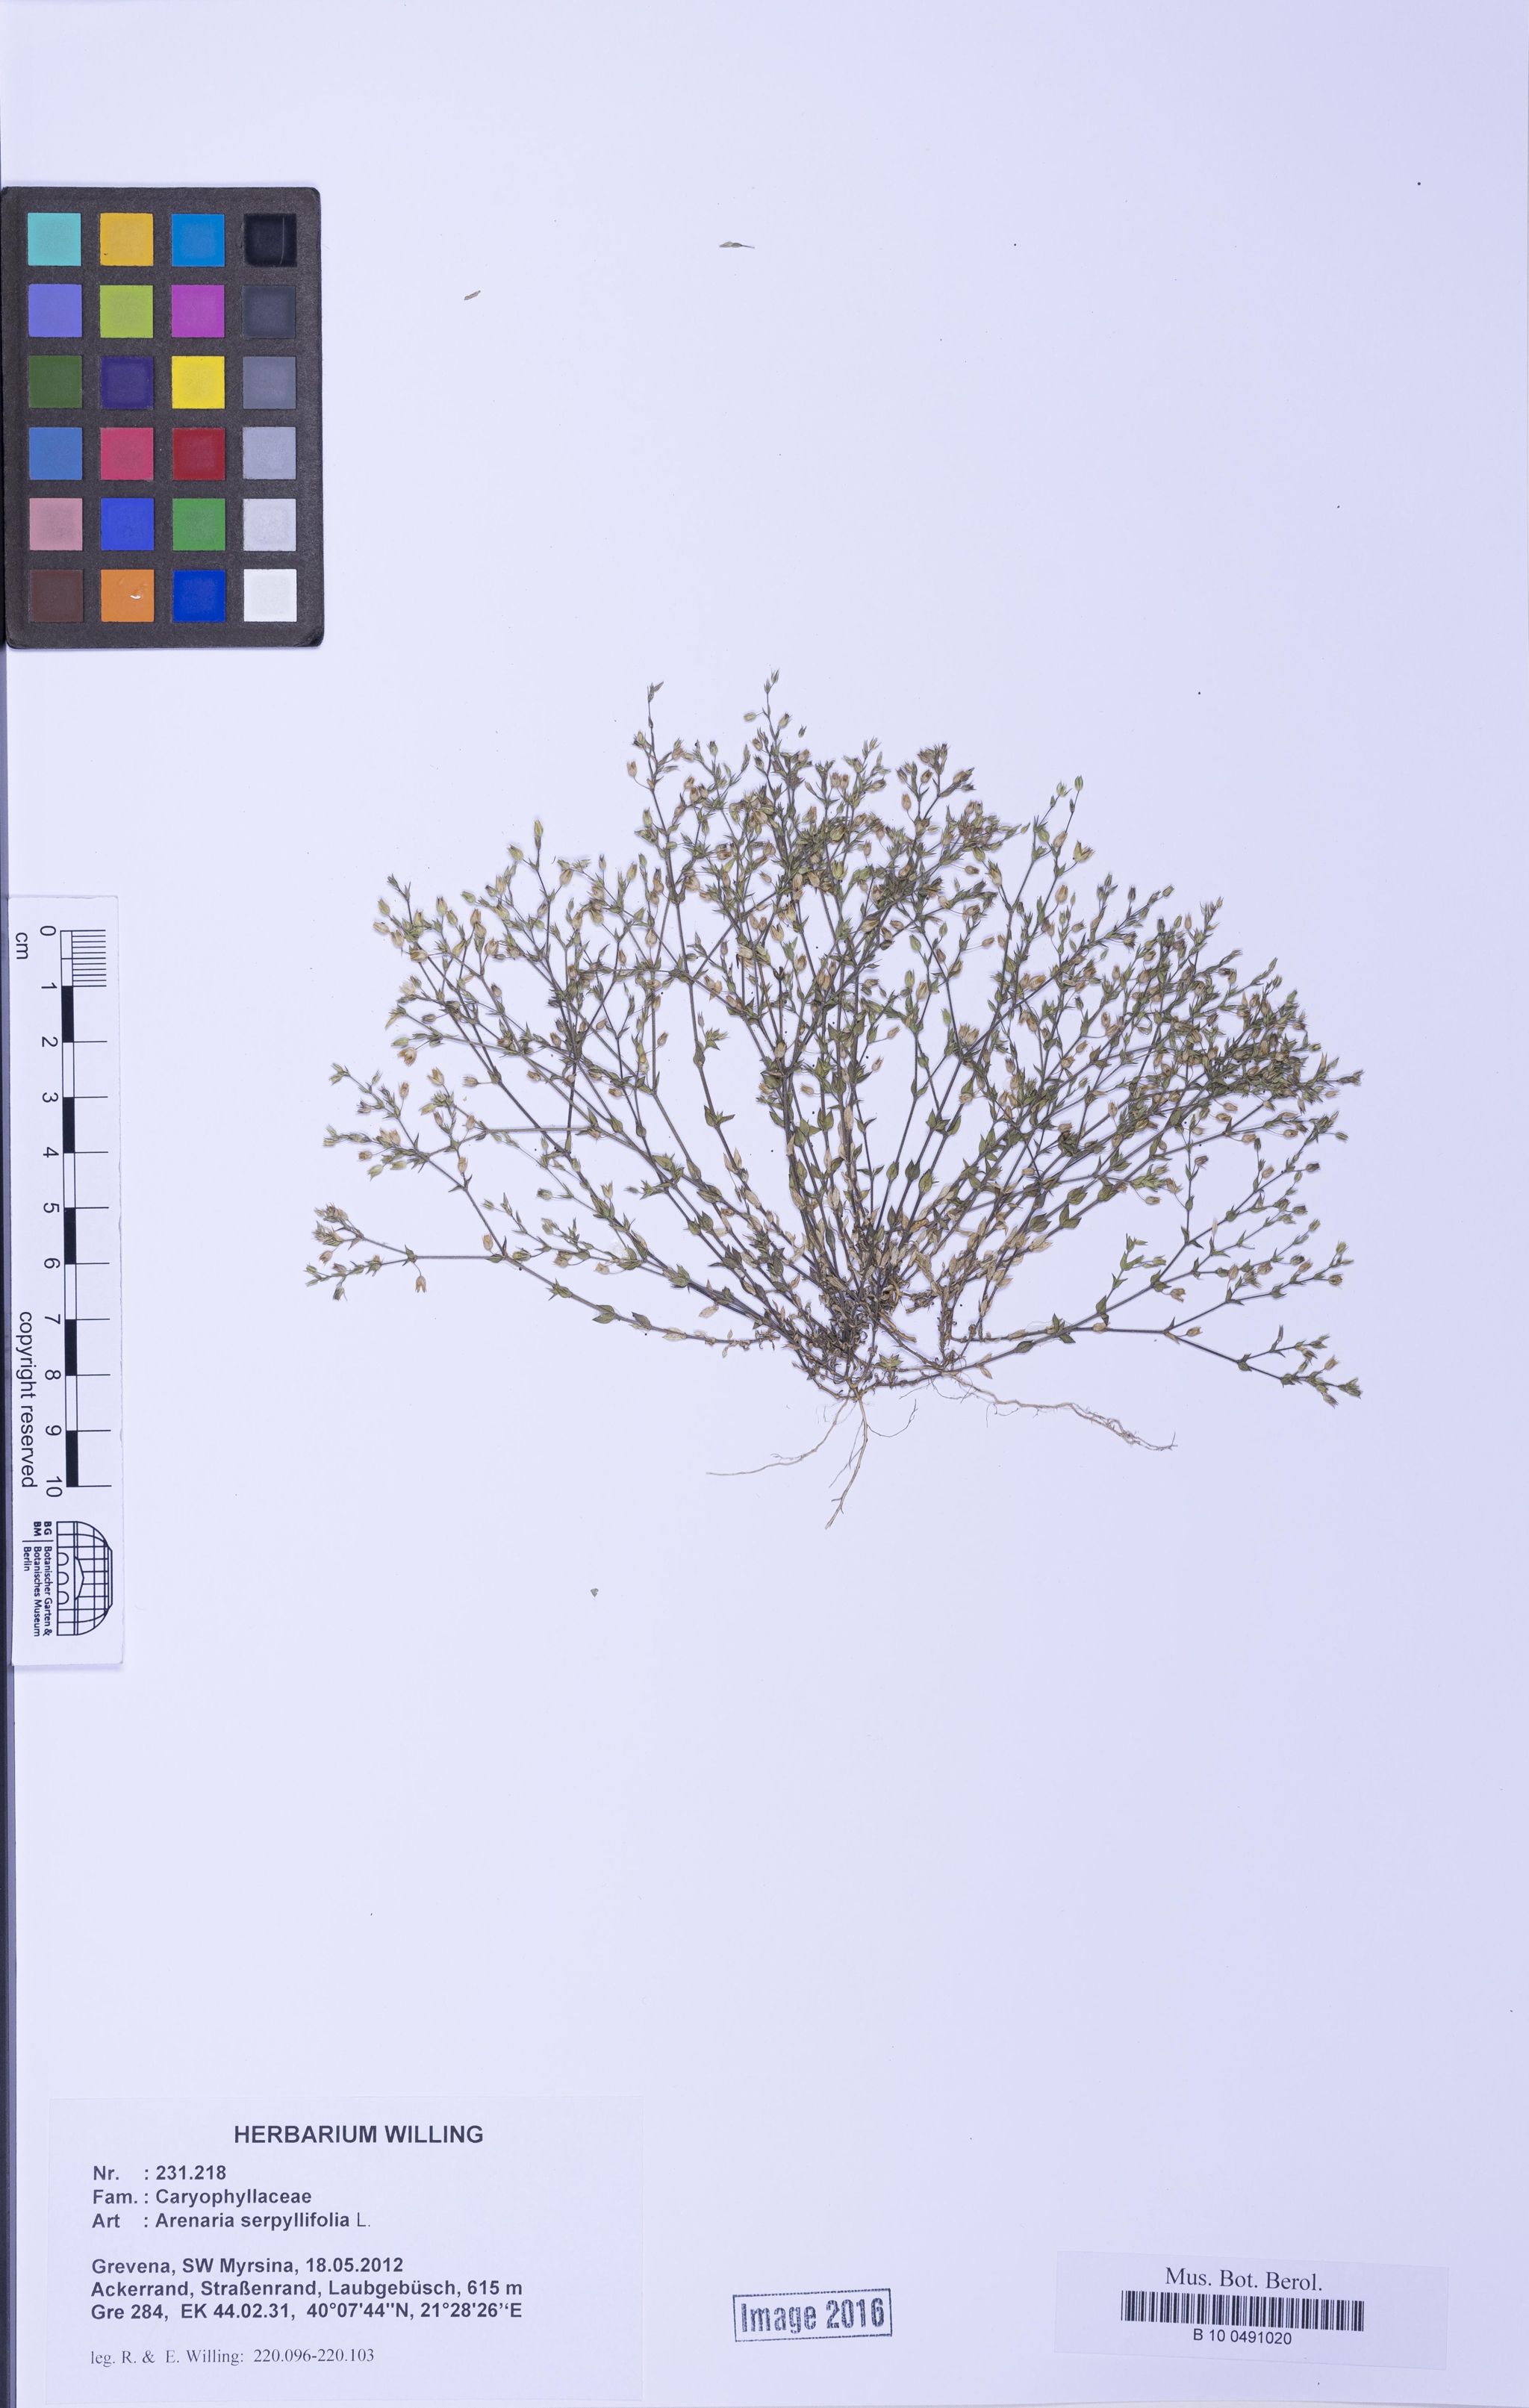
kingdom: Plantae
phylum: Tracheophyta
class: Magnoliopsida
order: Caryophyllales
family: Caryophyllaceae
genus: Arenaria
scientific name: Arenaria serpyllifolia
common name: Thyme-leaved sandwort
